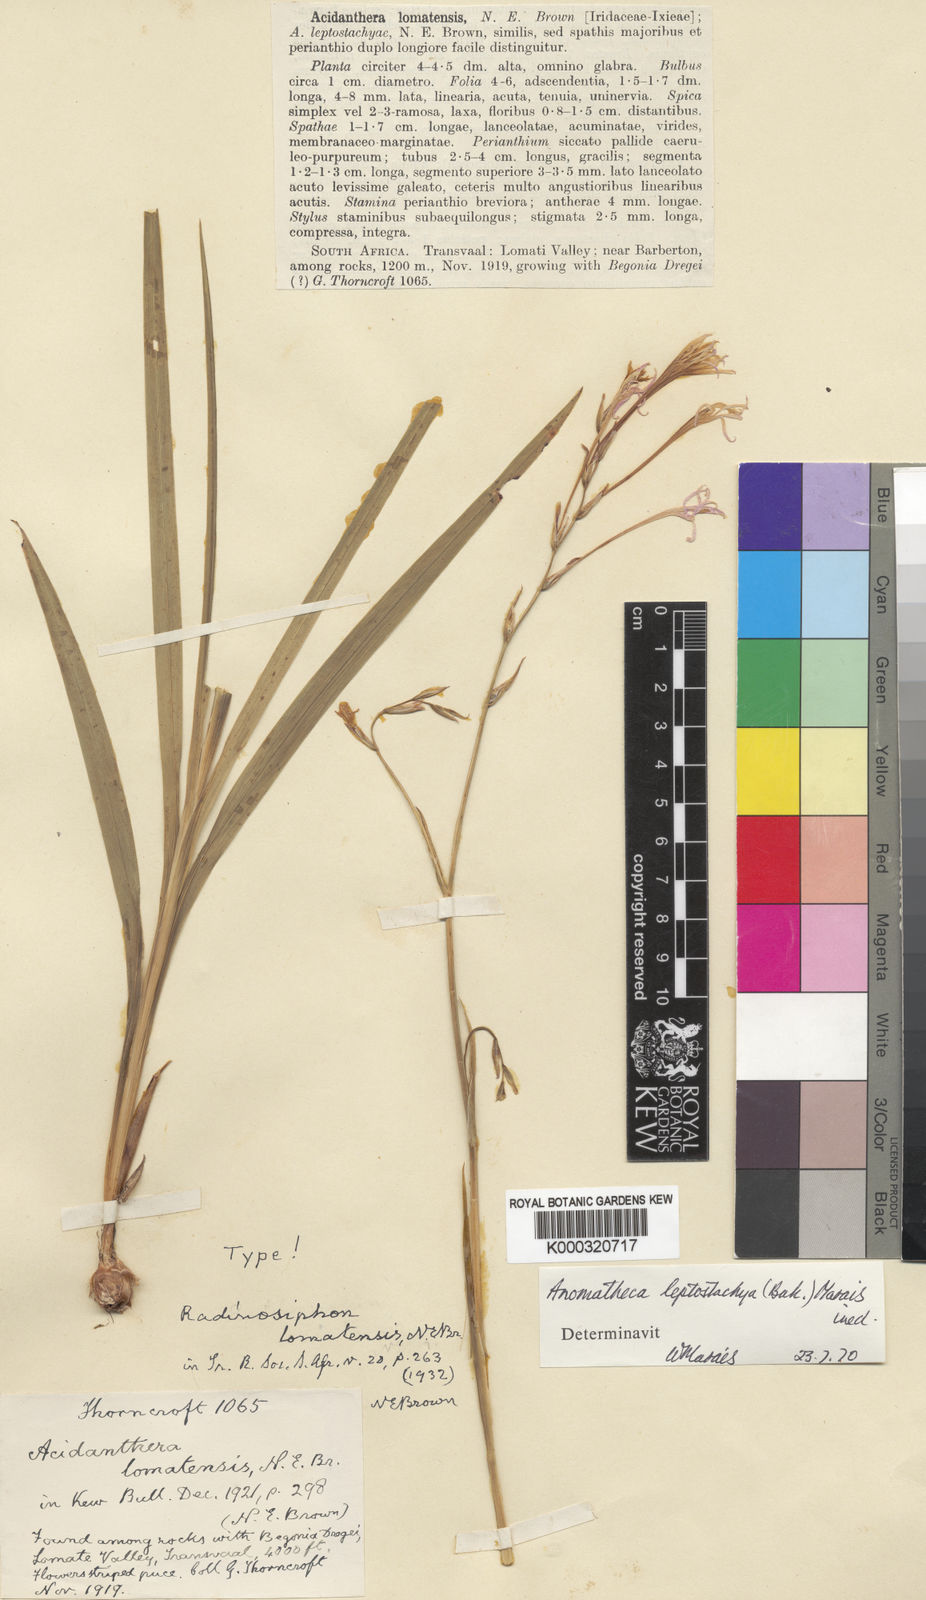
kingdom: Plantae
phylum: Tracheophyta
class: Liliopsida
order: Asparagales
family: Iridaceae
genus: Radinosiphon
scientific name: Radinosiphon leptostachya
